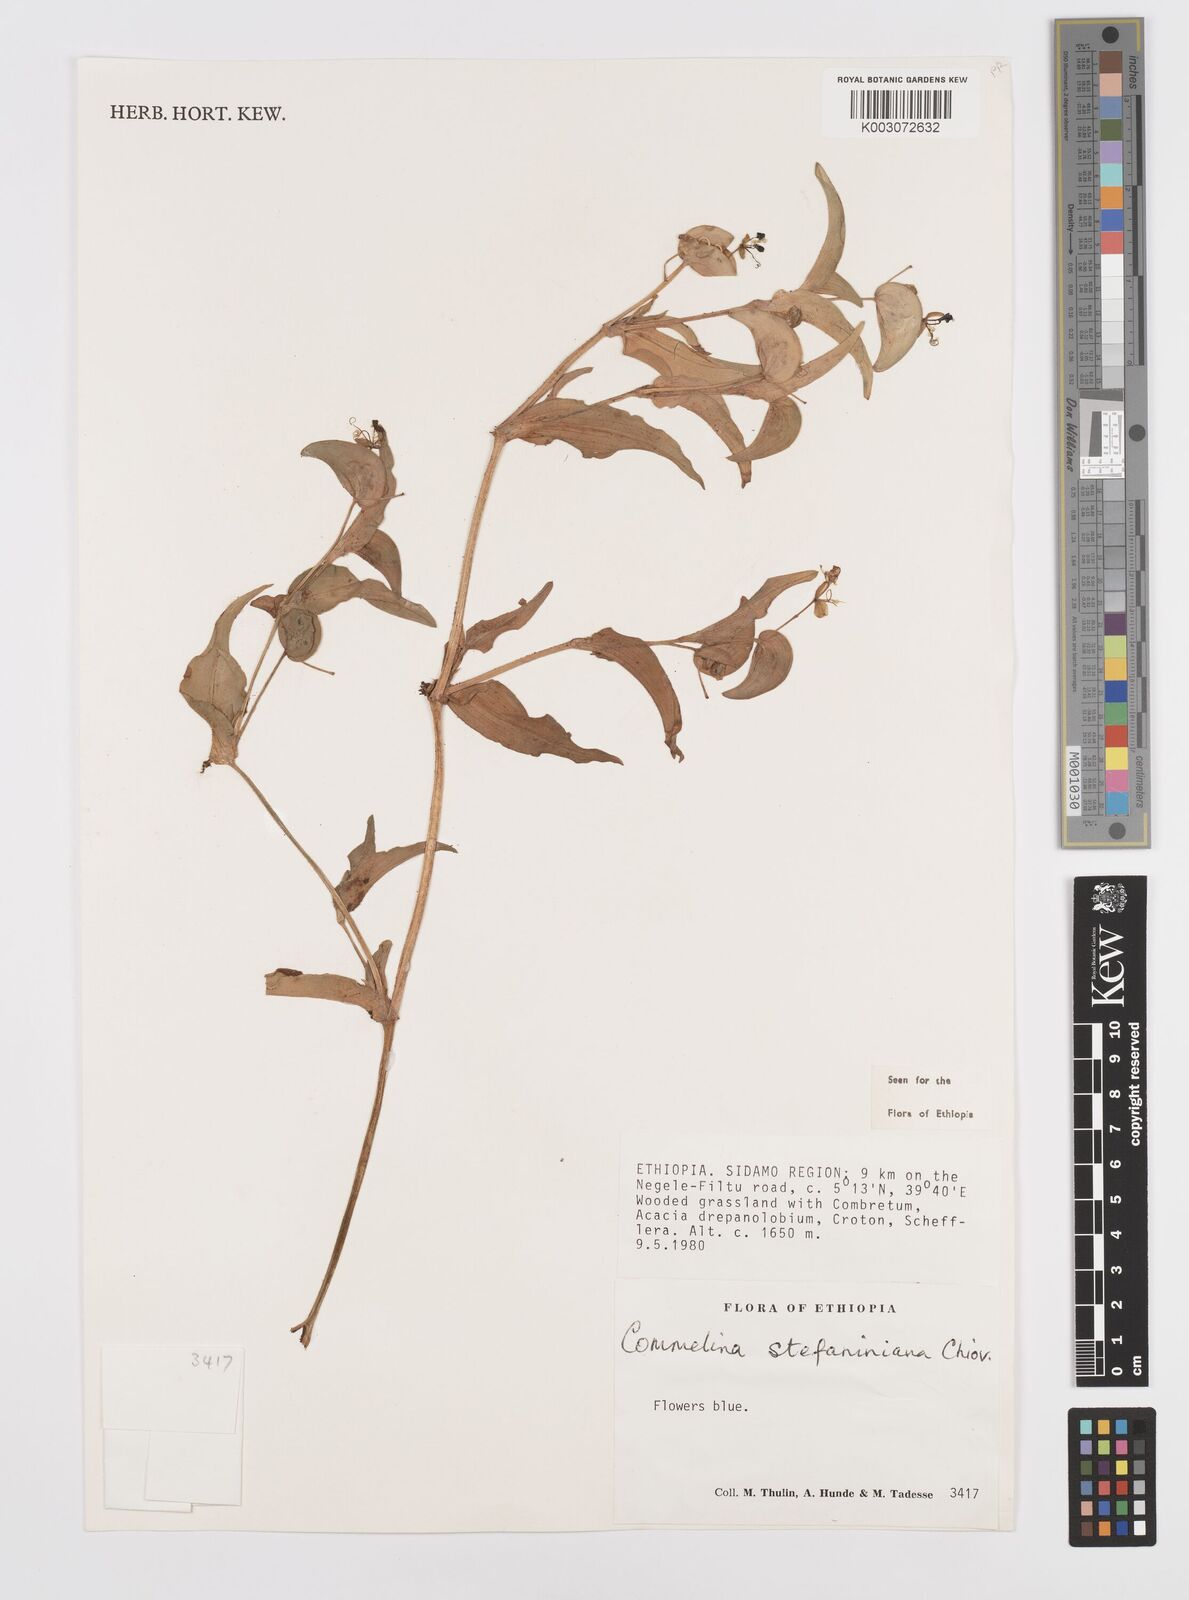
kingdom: Plantae
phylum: Tracheophyta
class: Liliopsida
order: Commelinales
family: Commelinaceae
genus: Commelina
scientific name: Commelina stefaniniana
